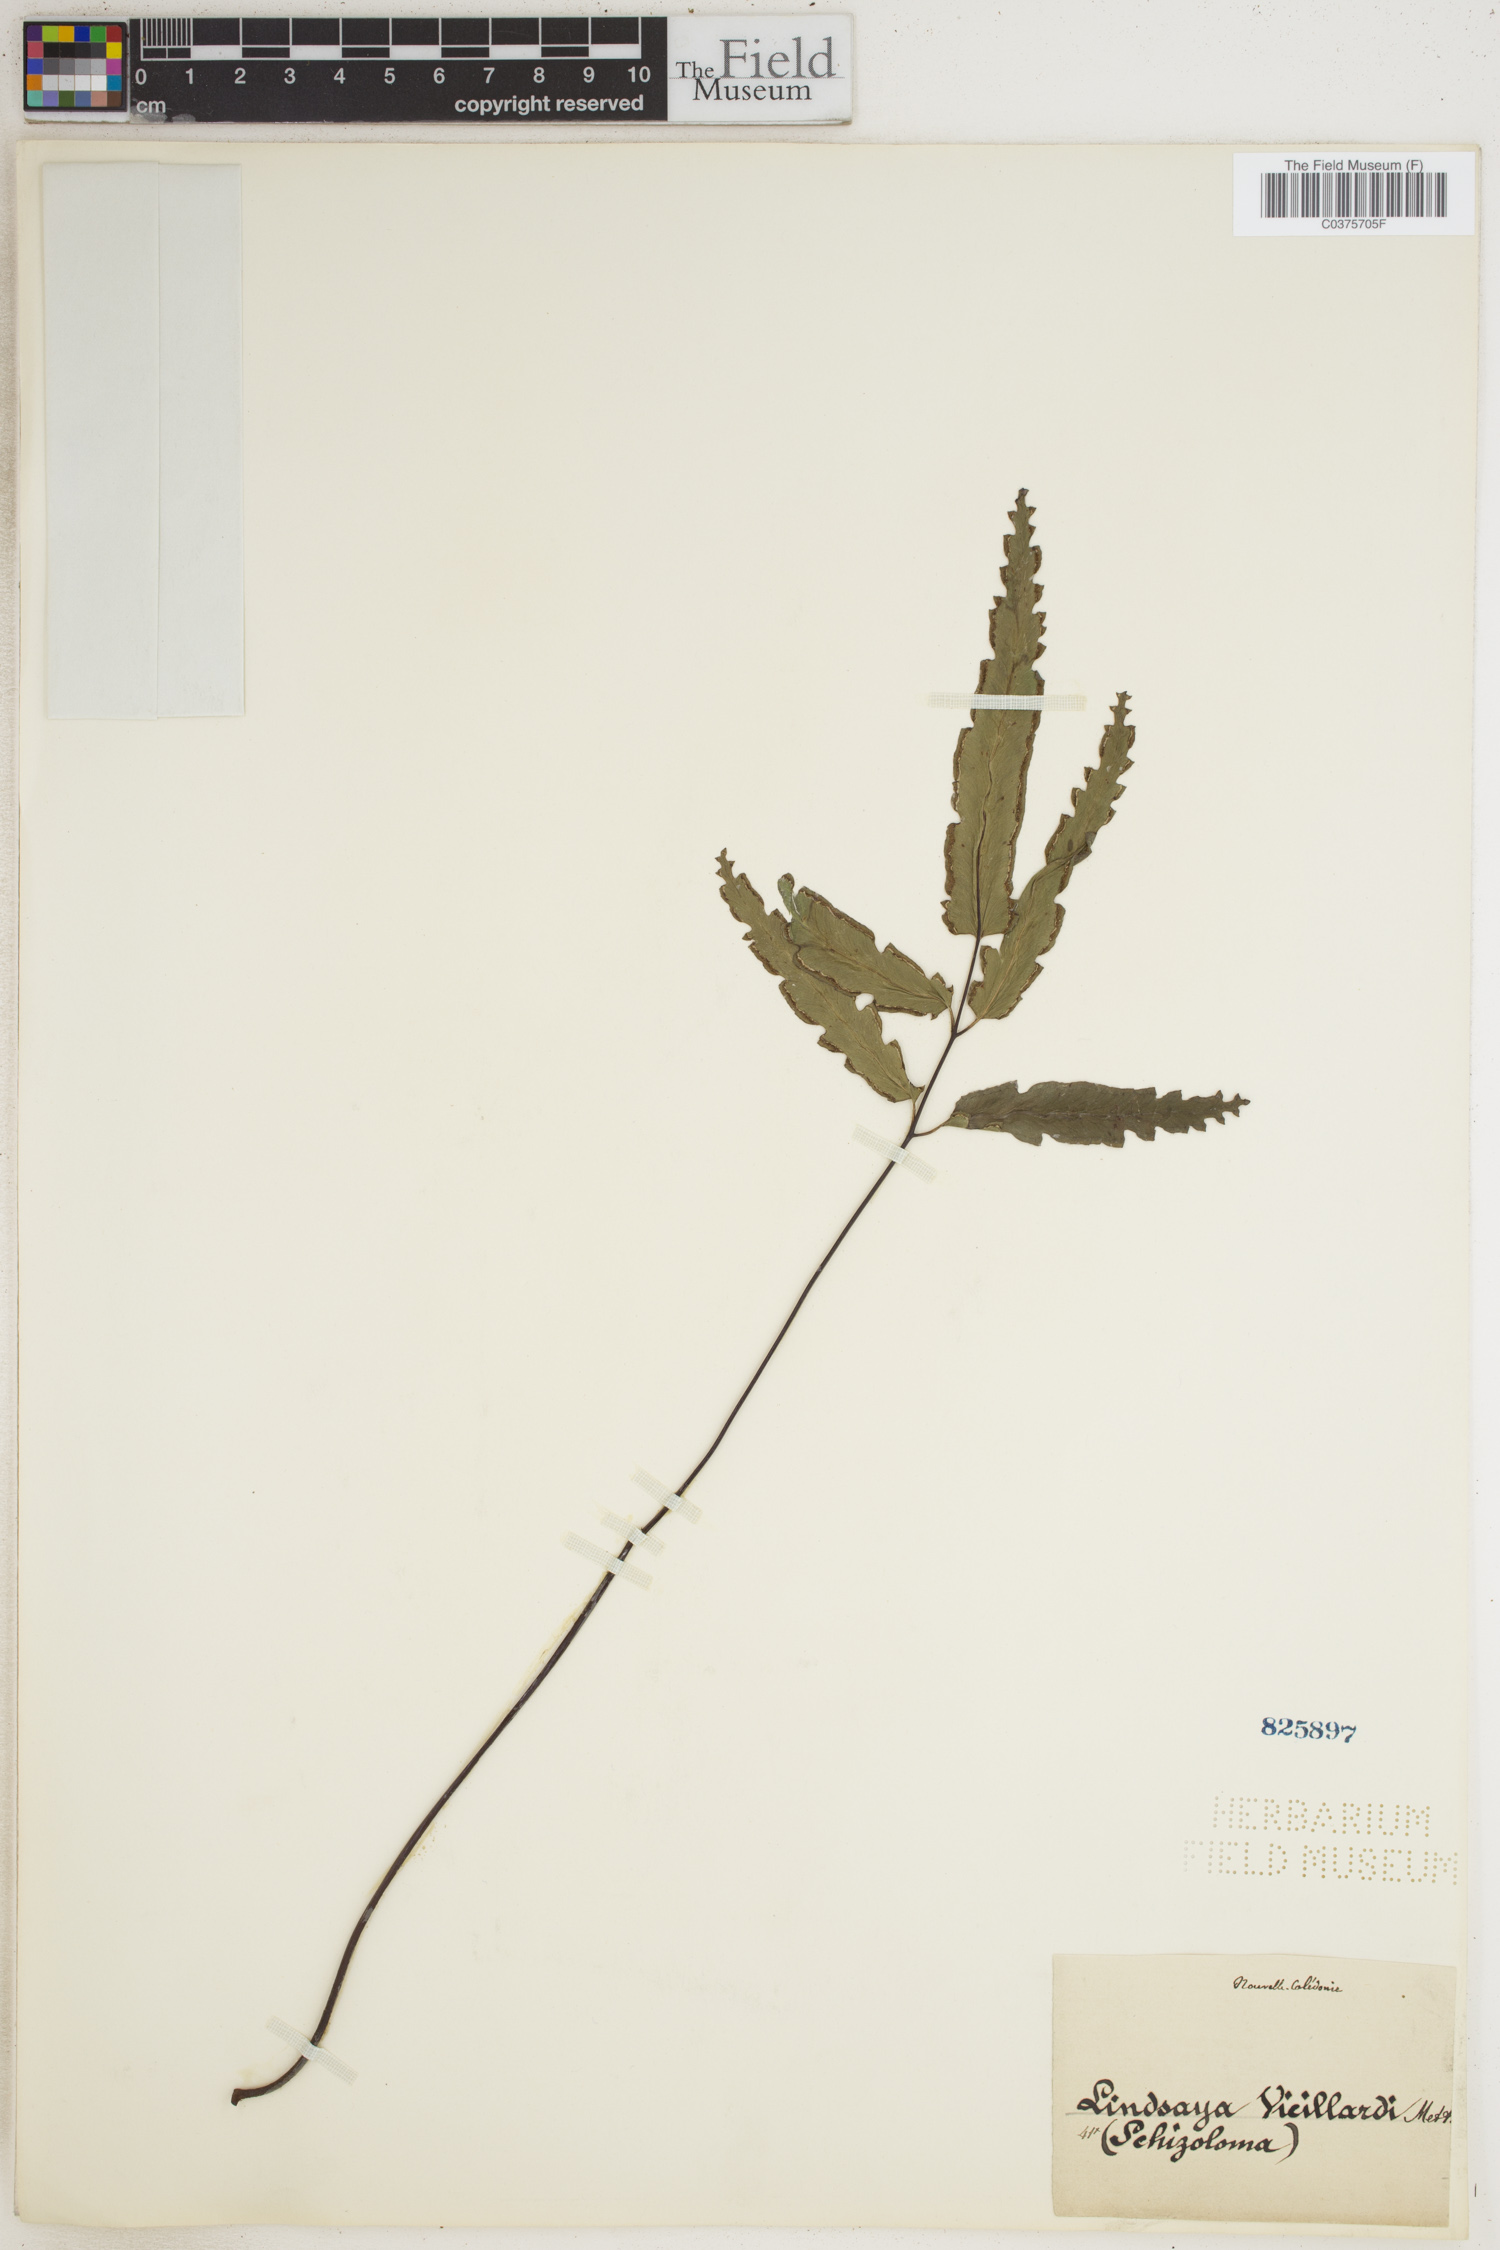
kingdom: Plantae
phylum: Tracheophyta
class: Polypodiopsida
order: Polypodiales
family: Lindsaeaceae
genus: Lindsaea
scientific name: Lindsaea vieillardii
